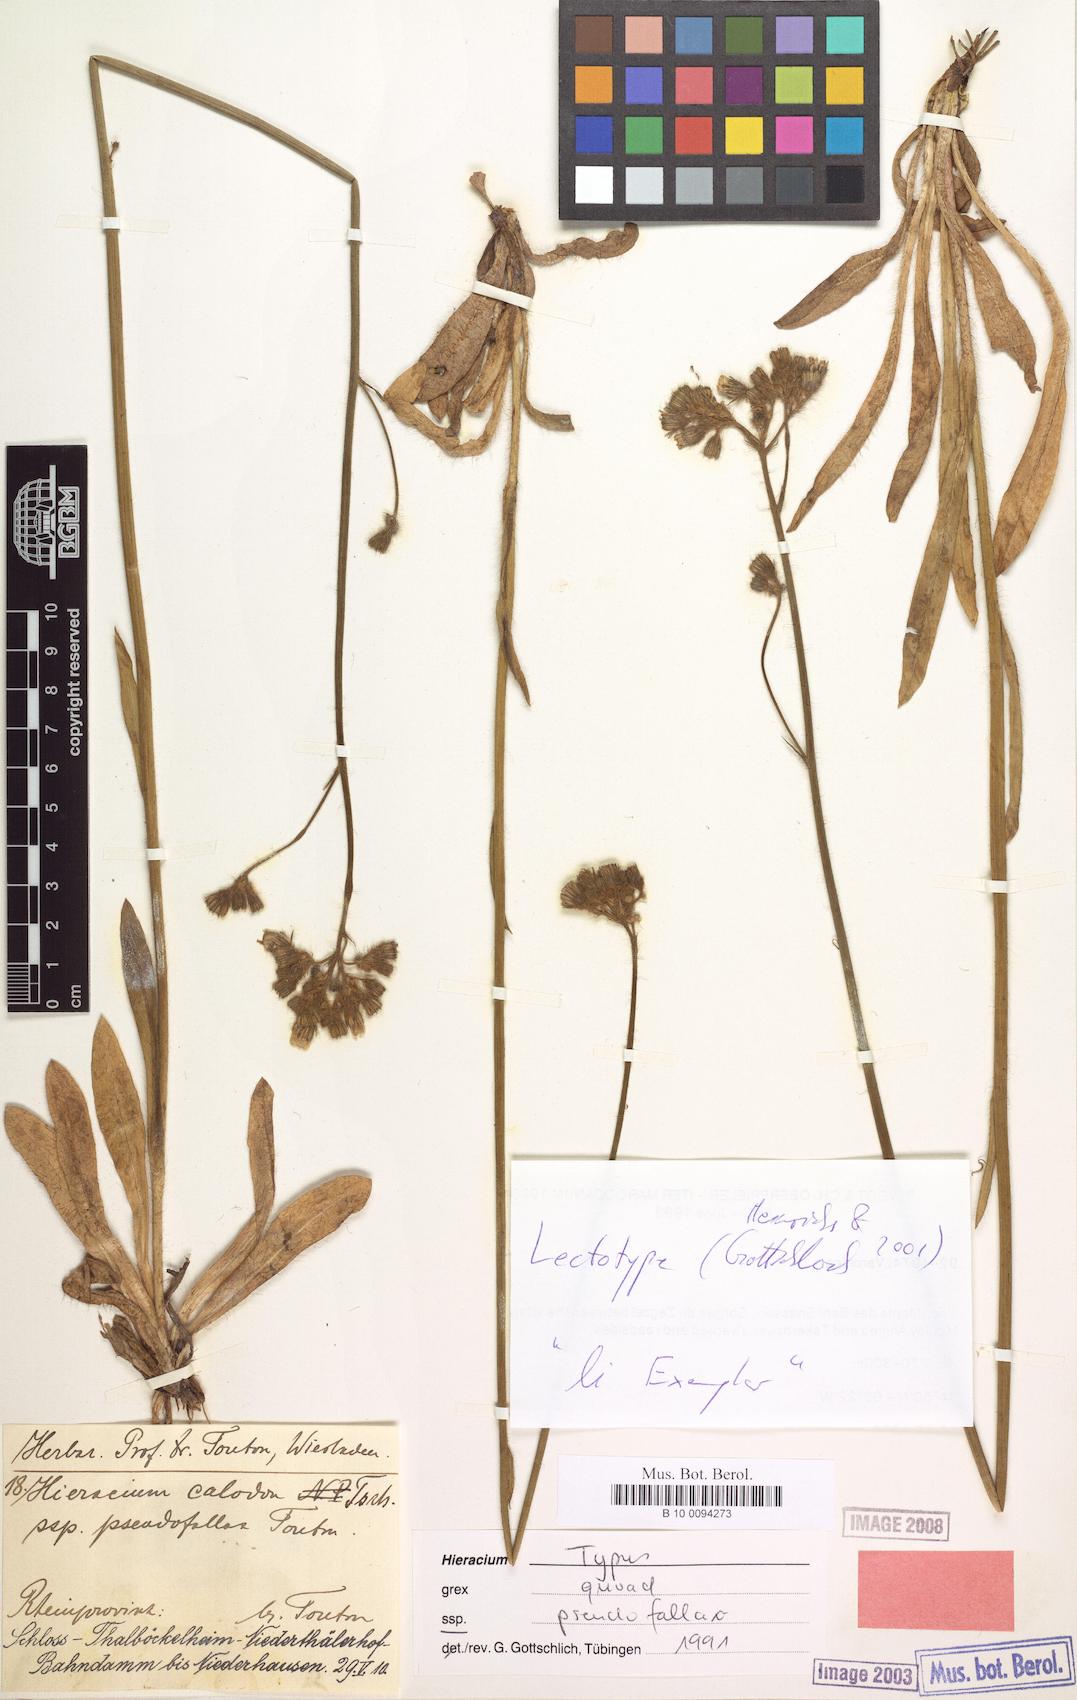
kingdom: Plantae
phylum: Tracheophyta
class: Magnoliopsida
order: Asterales
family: Asteraceae
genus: Pilosella
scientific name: Pilosella calodon
